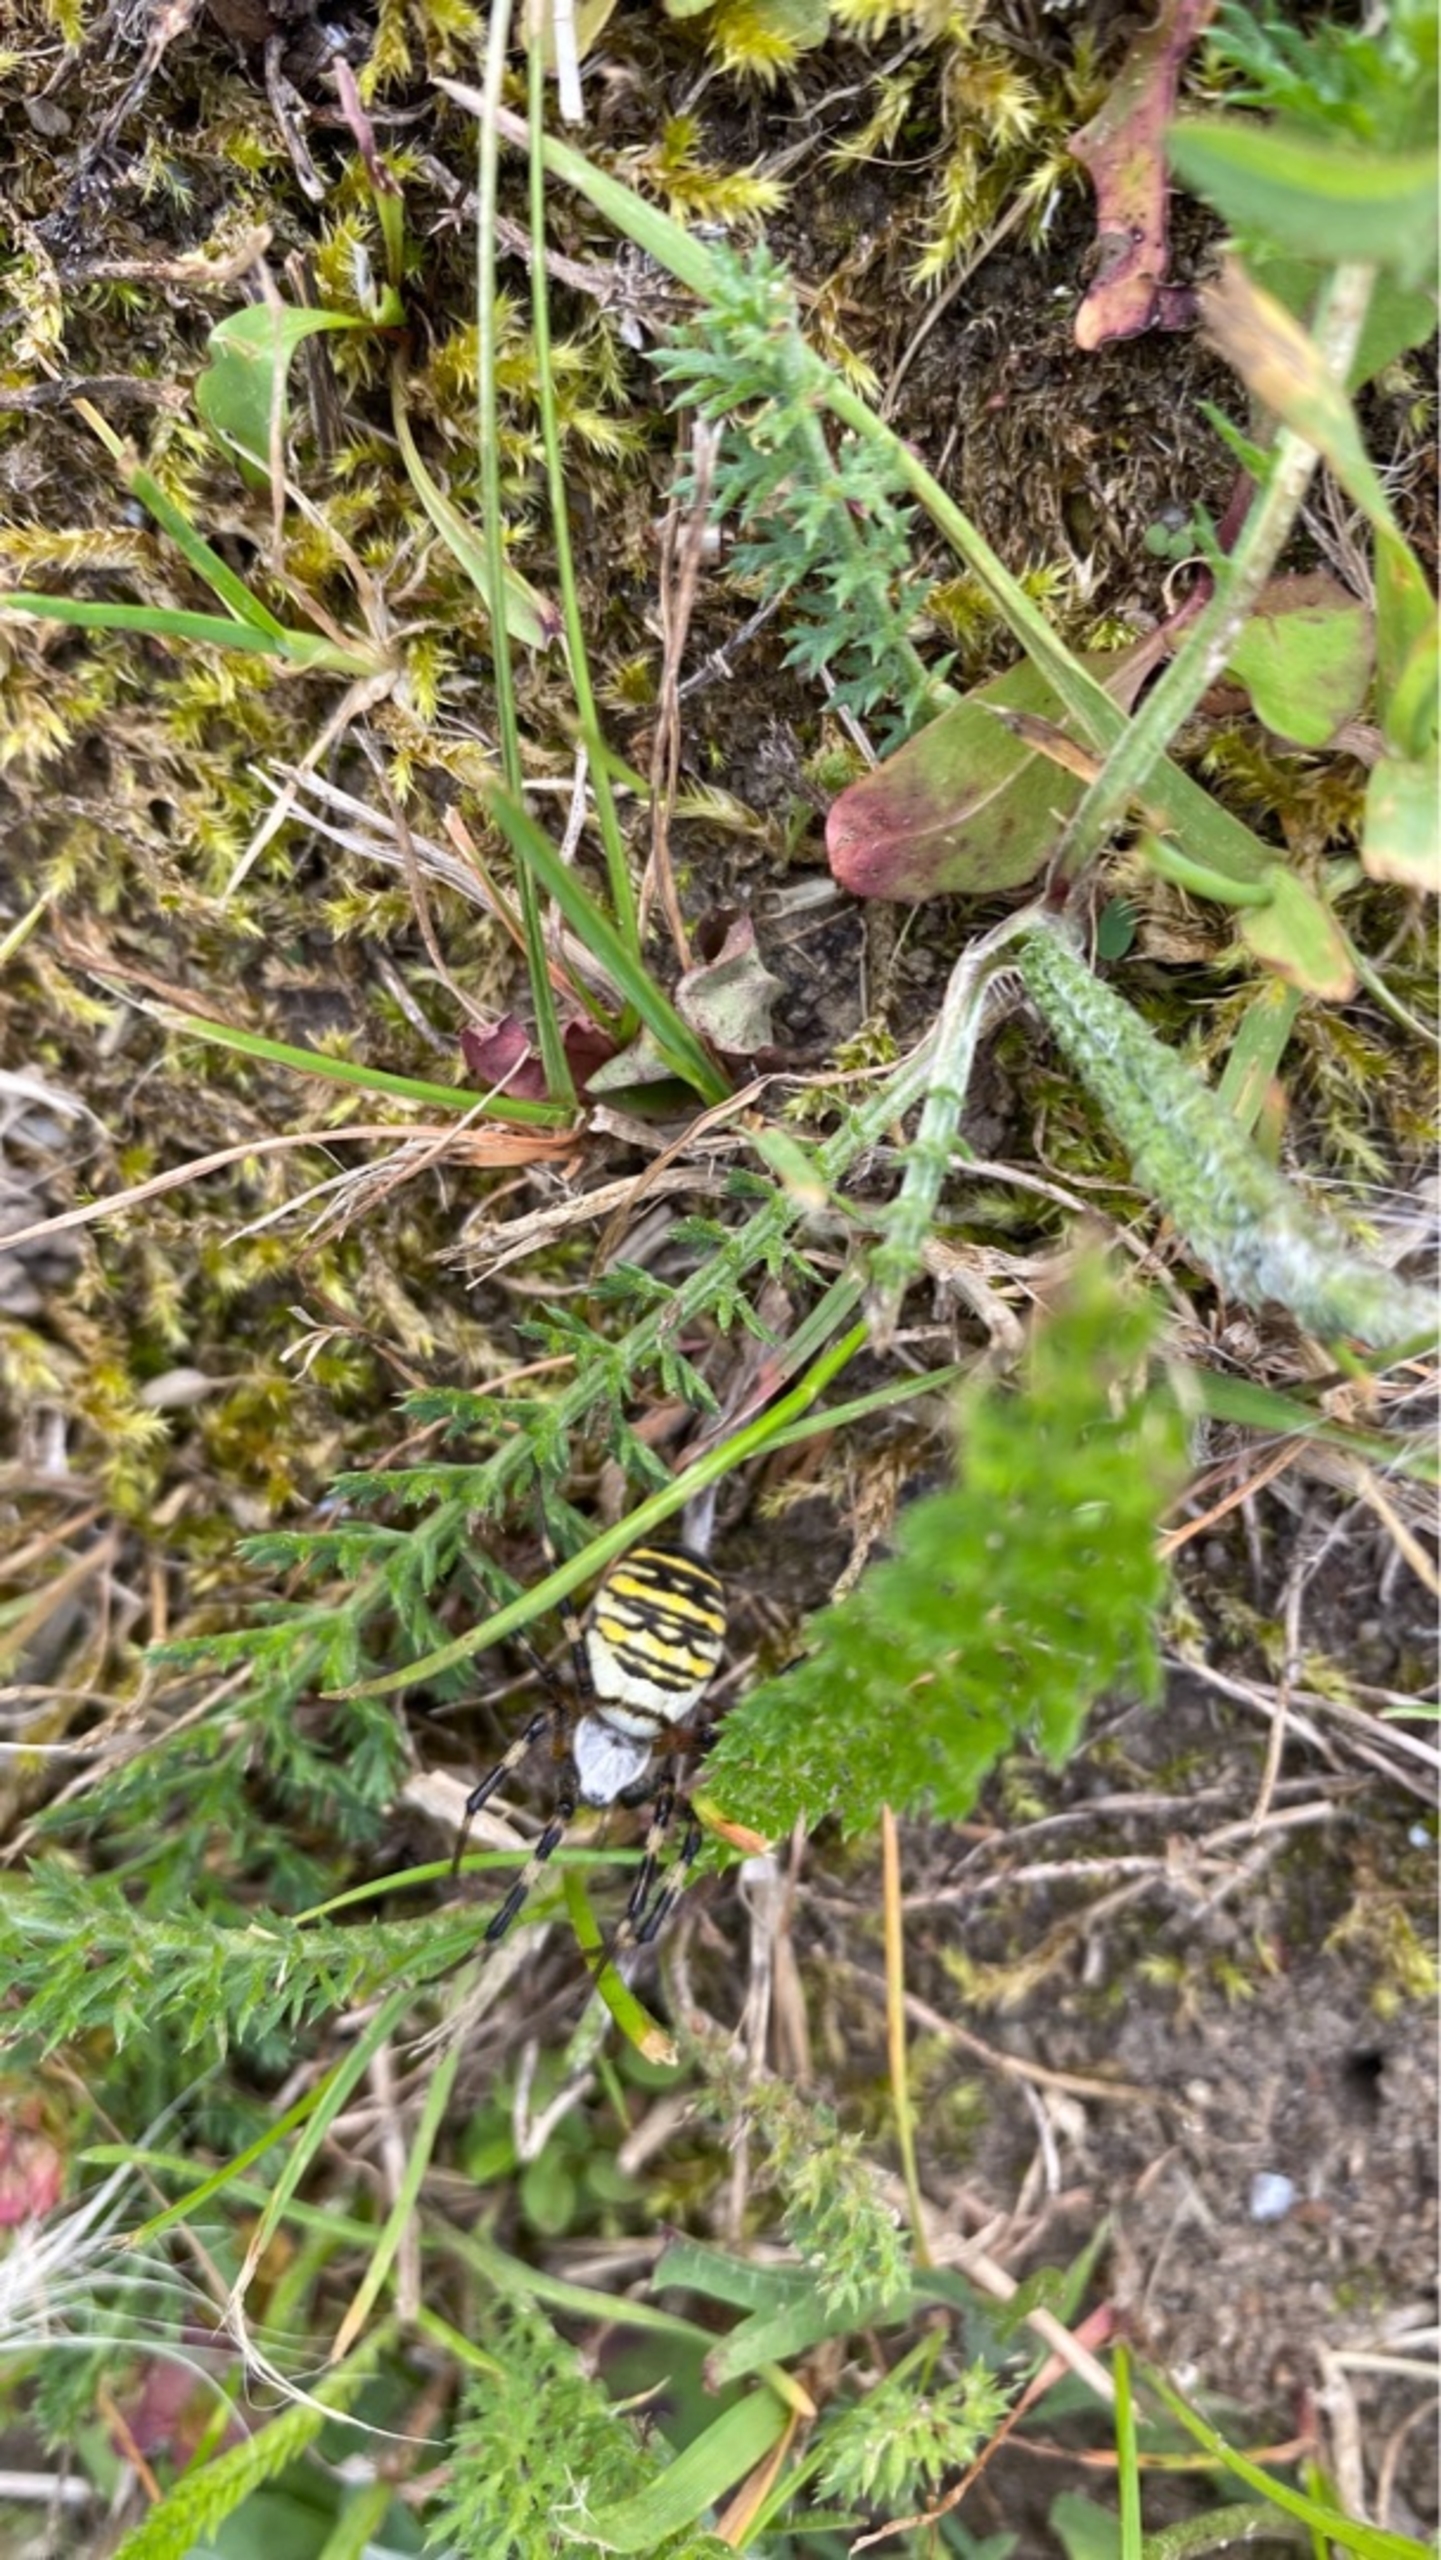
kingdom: Animalia
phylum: Arthropoda
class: Arachnida
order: Araneae
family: Araneidae
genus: Argiope
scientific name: Argiope bruennichi
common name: Hvepseedderkop
